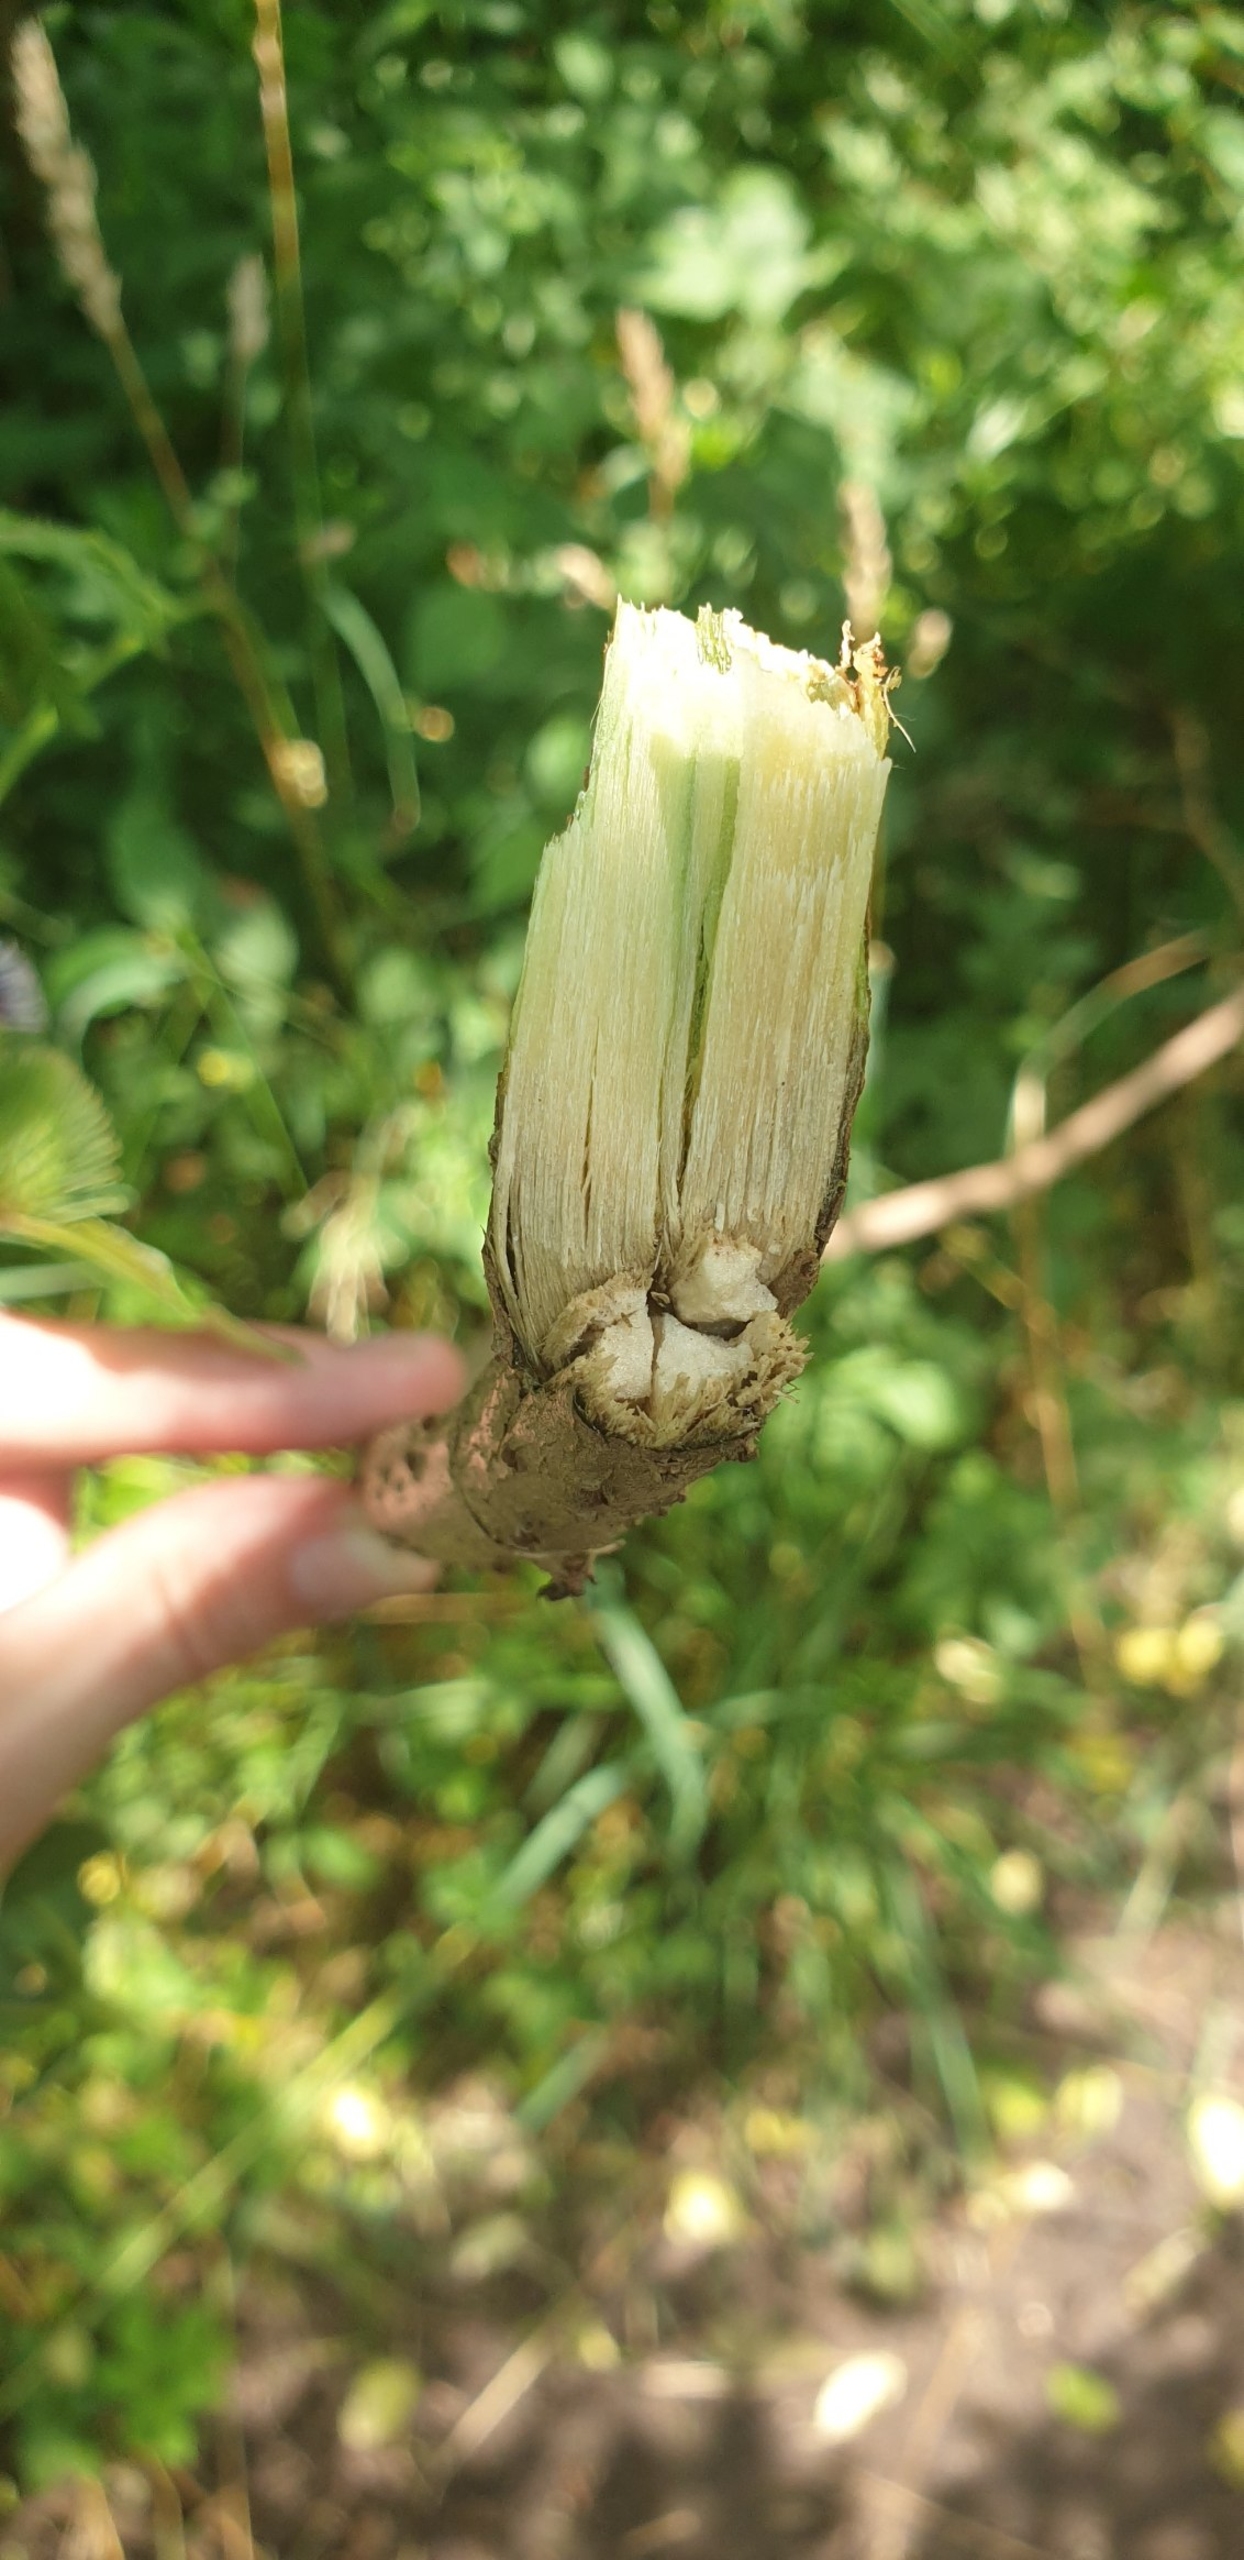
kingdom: Plantae
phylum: Tracheophyta
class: Magnoliopsida
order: Dipsacales
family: Viburnaceae
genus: Sambucus
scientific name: Sambucus nigra
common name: Almindelig hyld
